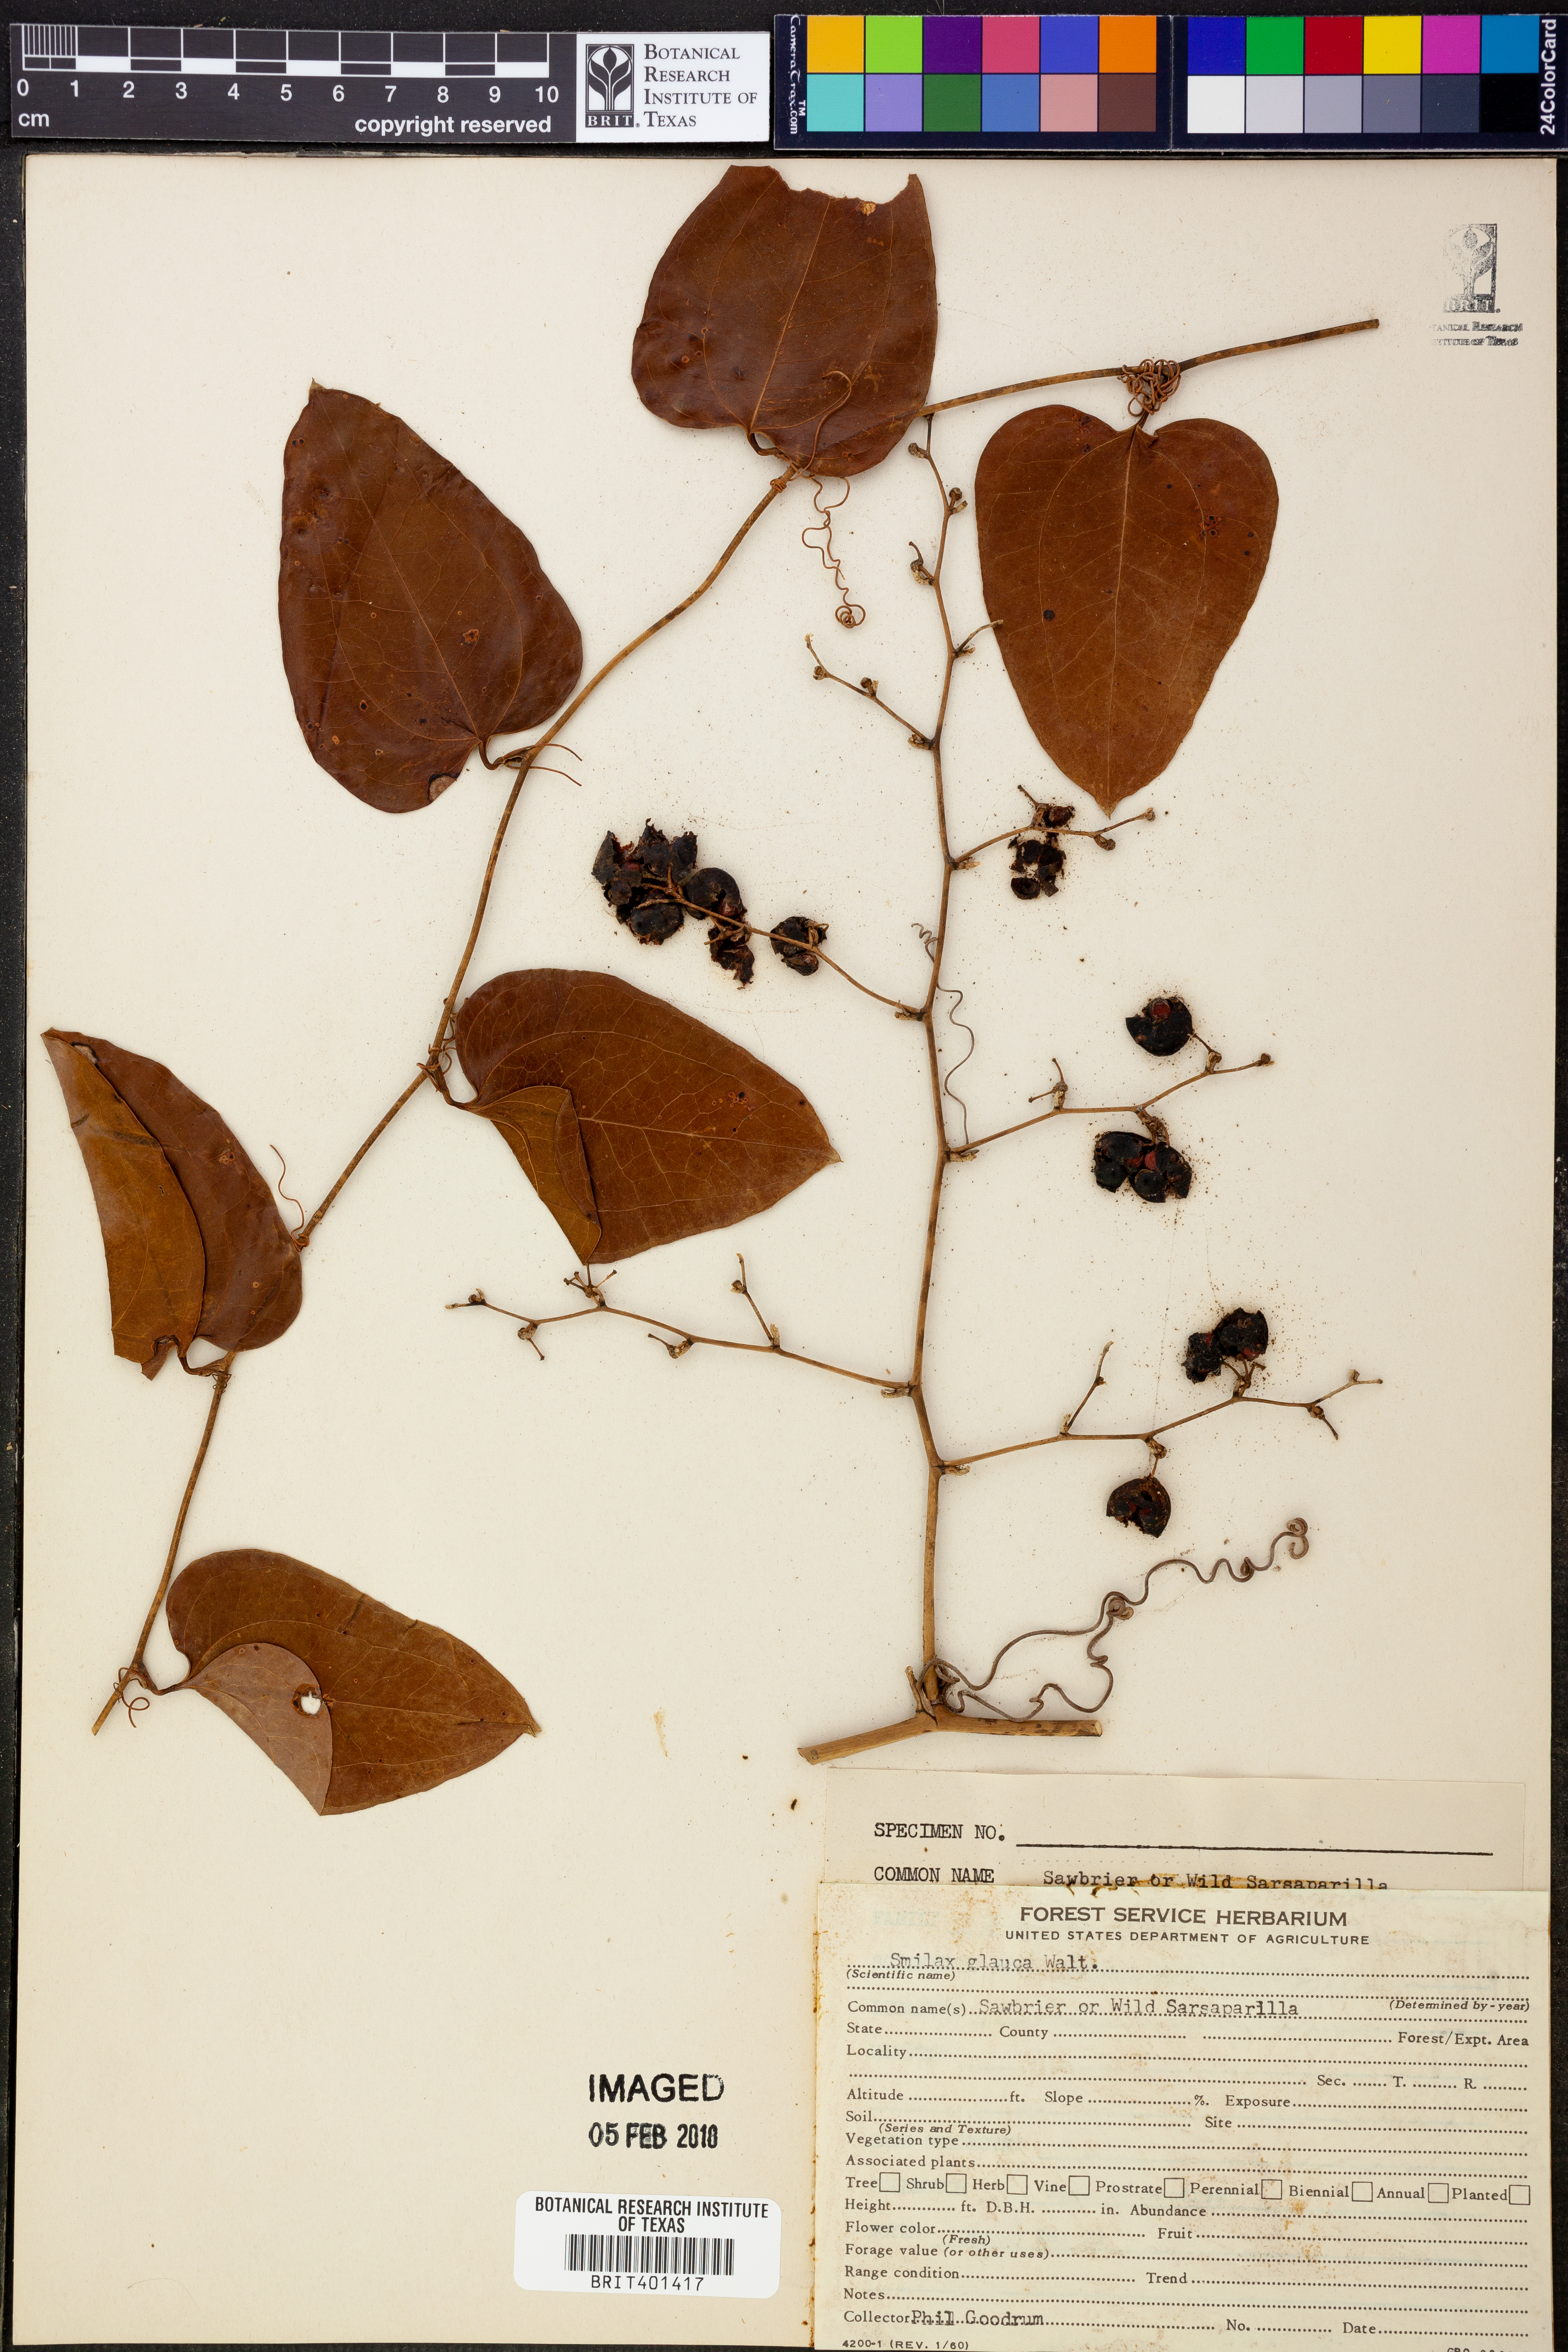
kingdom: Plantae
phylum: Tracheophyta
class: Liliopsida
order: Liliales
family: Smilacaceae
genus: Smilax
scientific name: Smilax glauca
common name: Cat greenbrier
